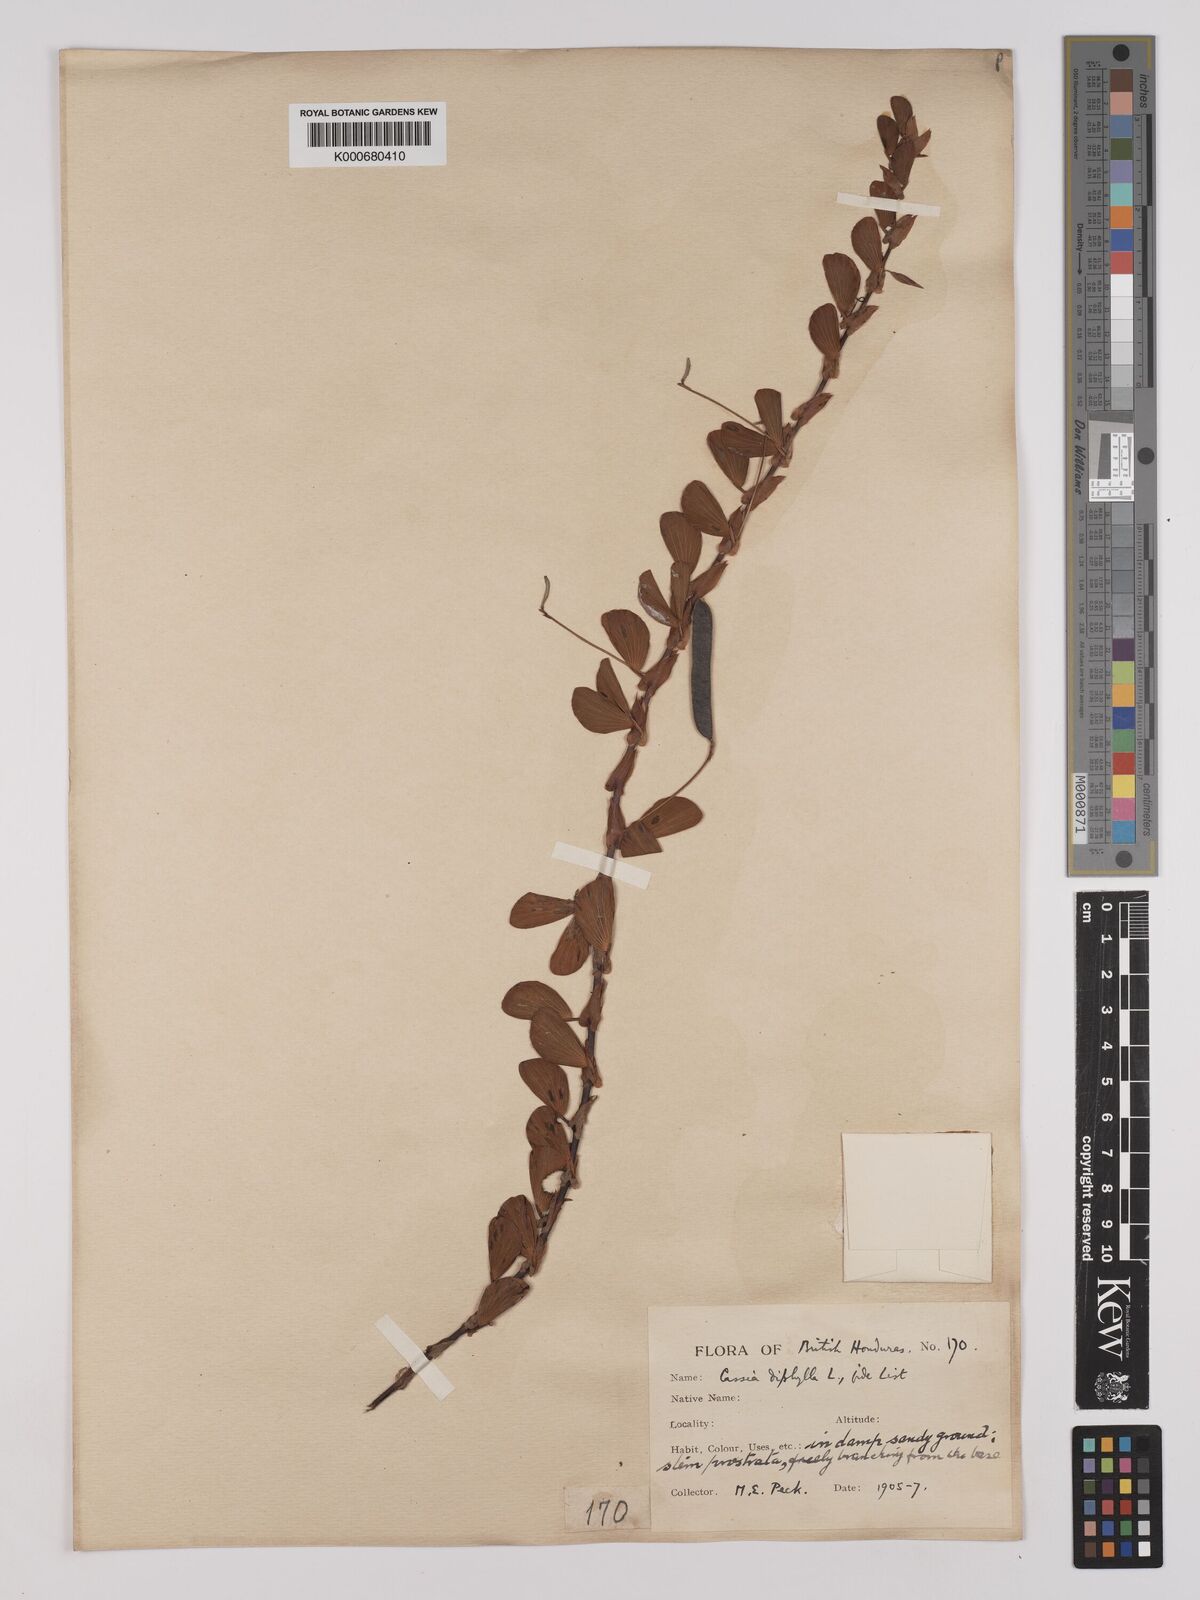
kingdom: Plantae
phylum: Tracheophyta
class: Magnoliopsida
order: Fabales
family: Fabaceae
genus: Chamaecrista
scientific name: Chamaecrista diphylla
